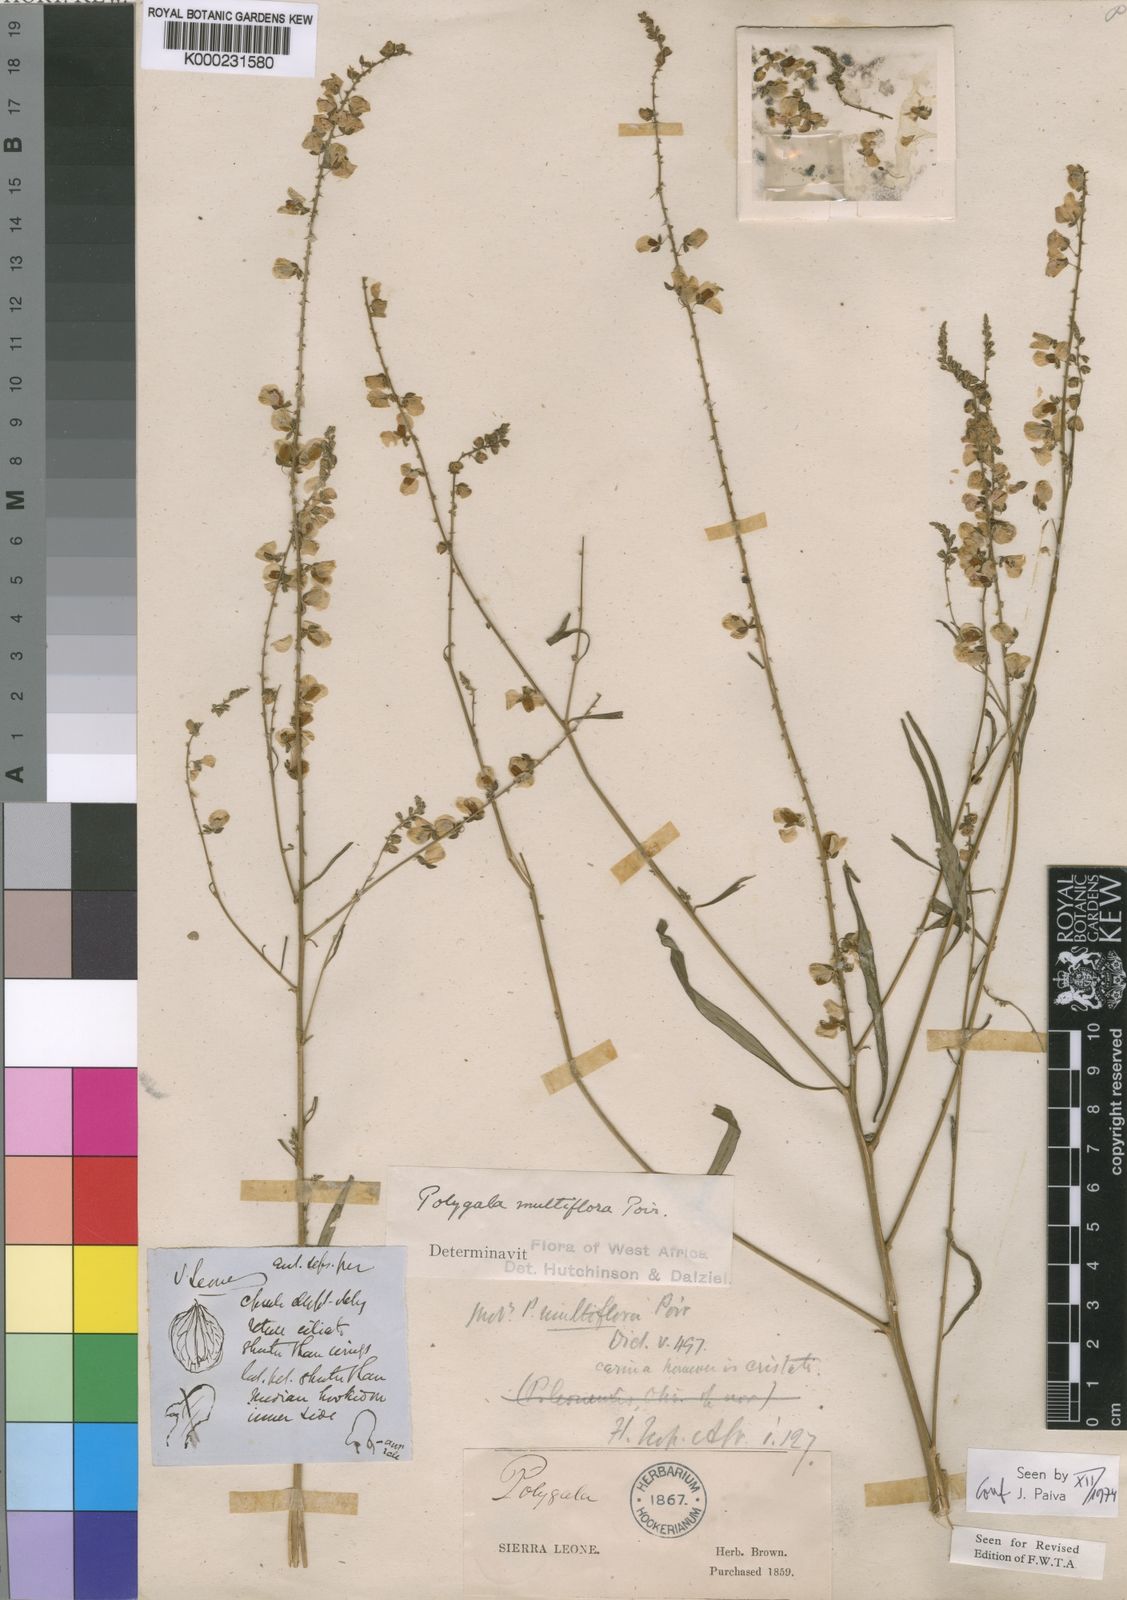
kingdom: Plantae
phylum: Tracheophyta
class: Magnoliopsida
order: Fabales
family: Polygalaceae
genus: Polygala
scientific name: Polygala multiflora
